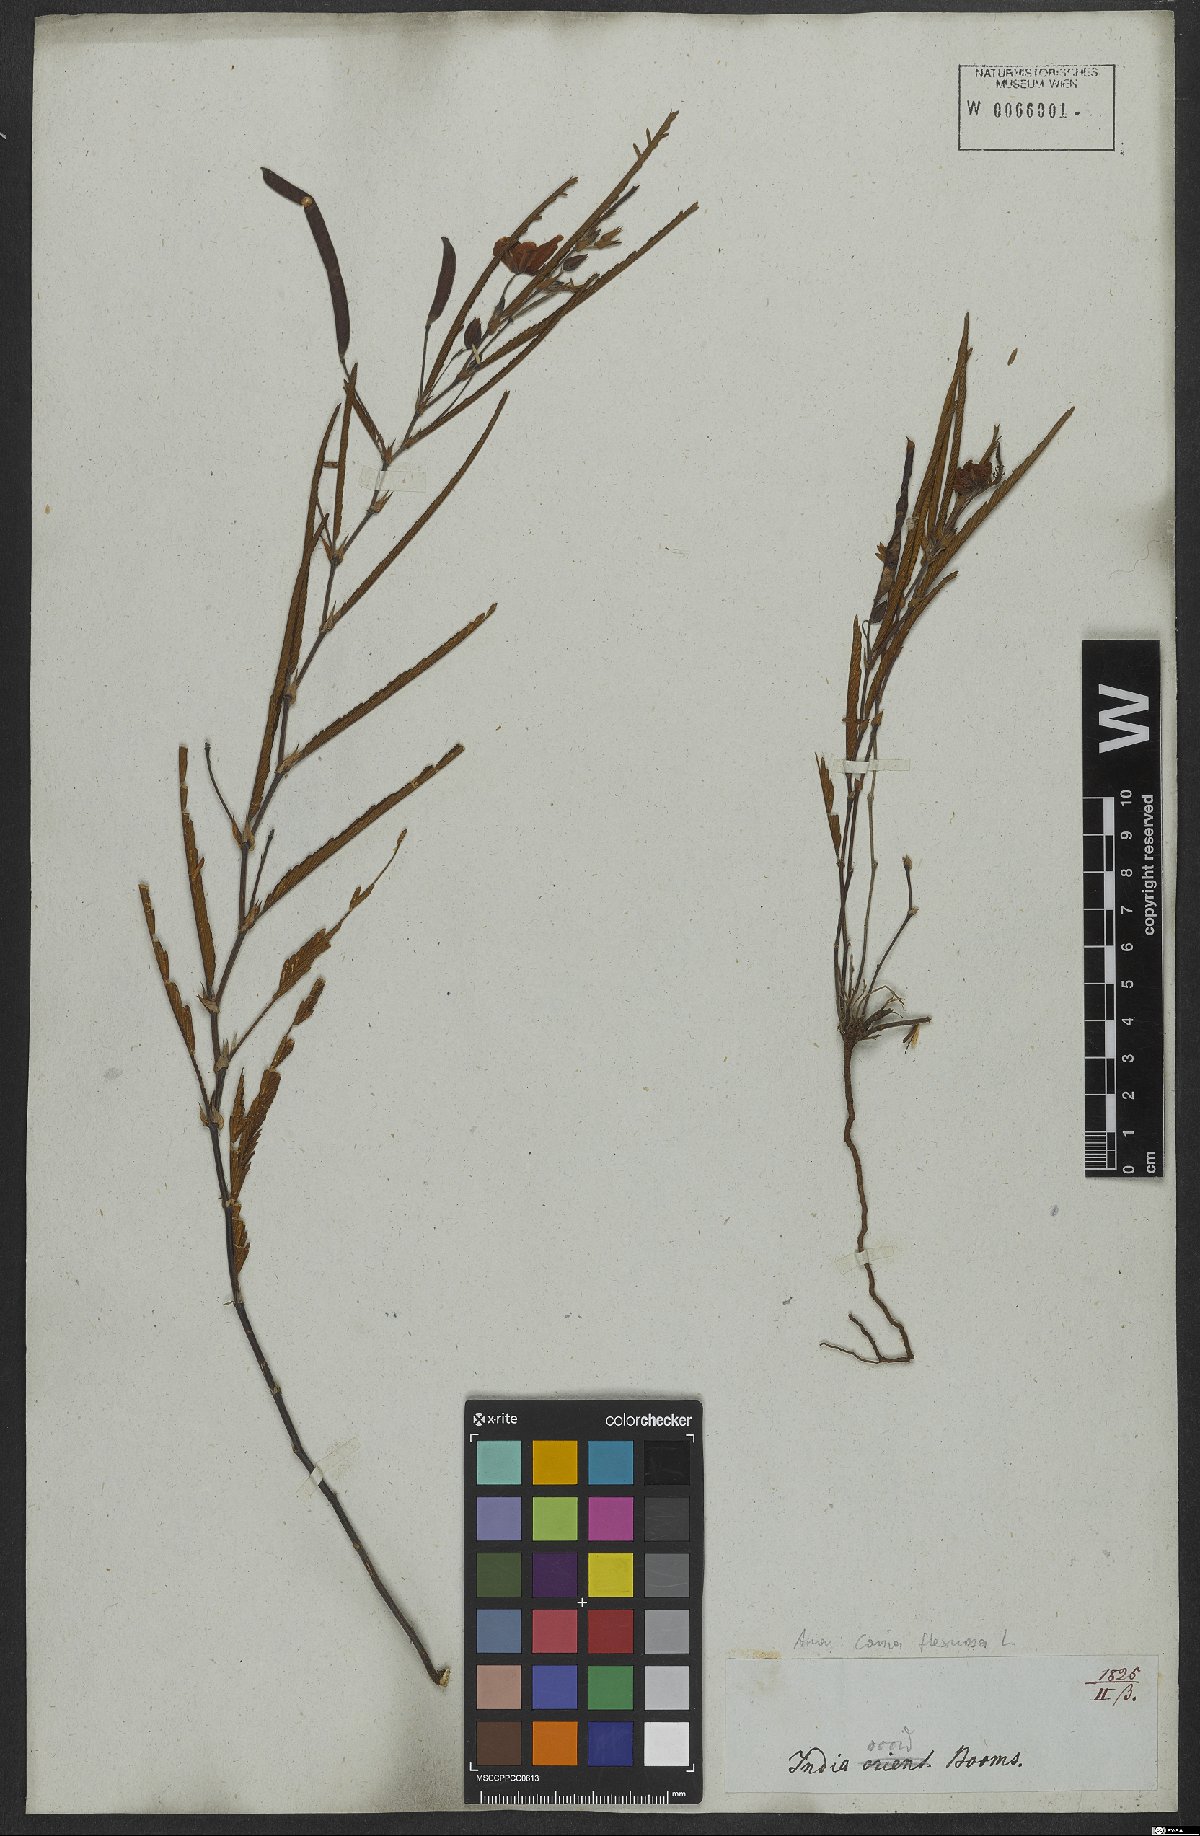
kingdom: Plantae
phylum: Tracheophyta
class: Magnoliopsida
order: Fabales
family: Fabaceae
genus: Chamaecrista
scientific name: Chamaecrista flexuosa
